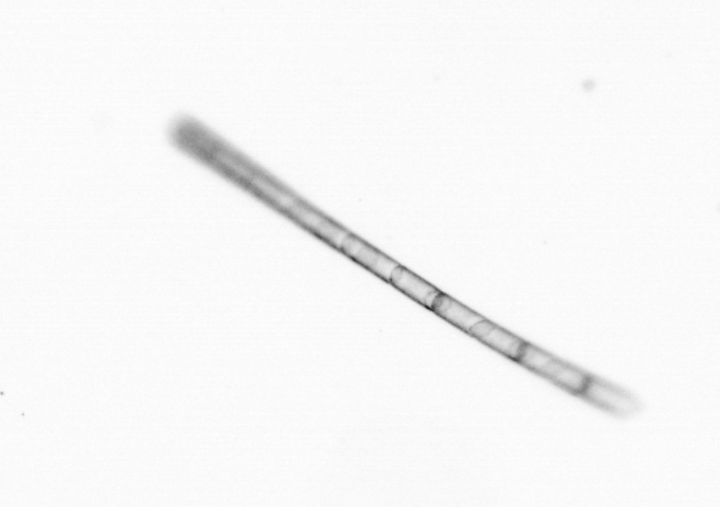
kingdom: Chromista
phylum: Ochrophyta
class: Bacillariophyceae
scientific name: Bacillariophyceae
